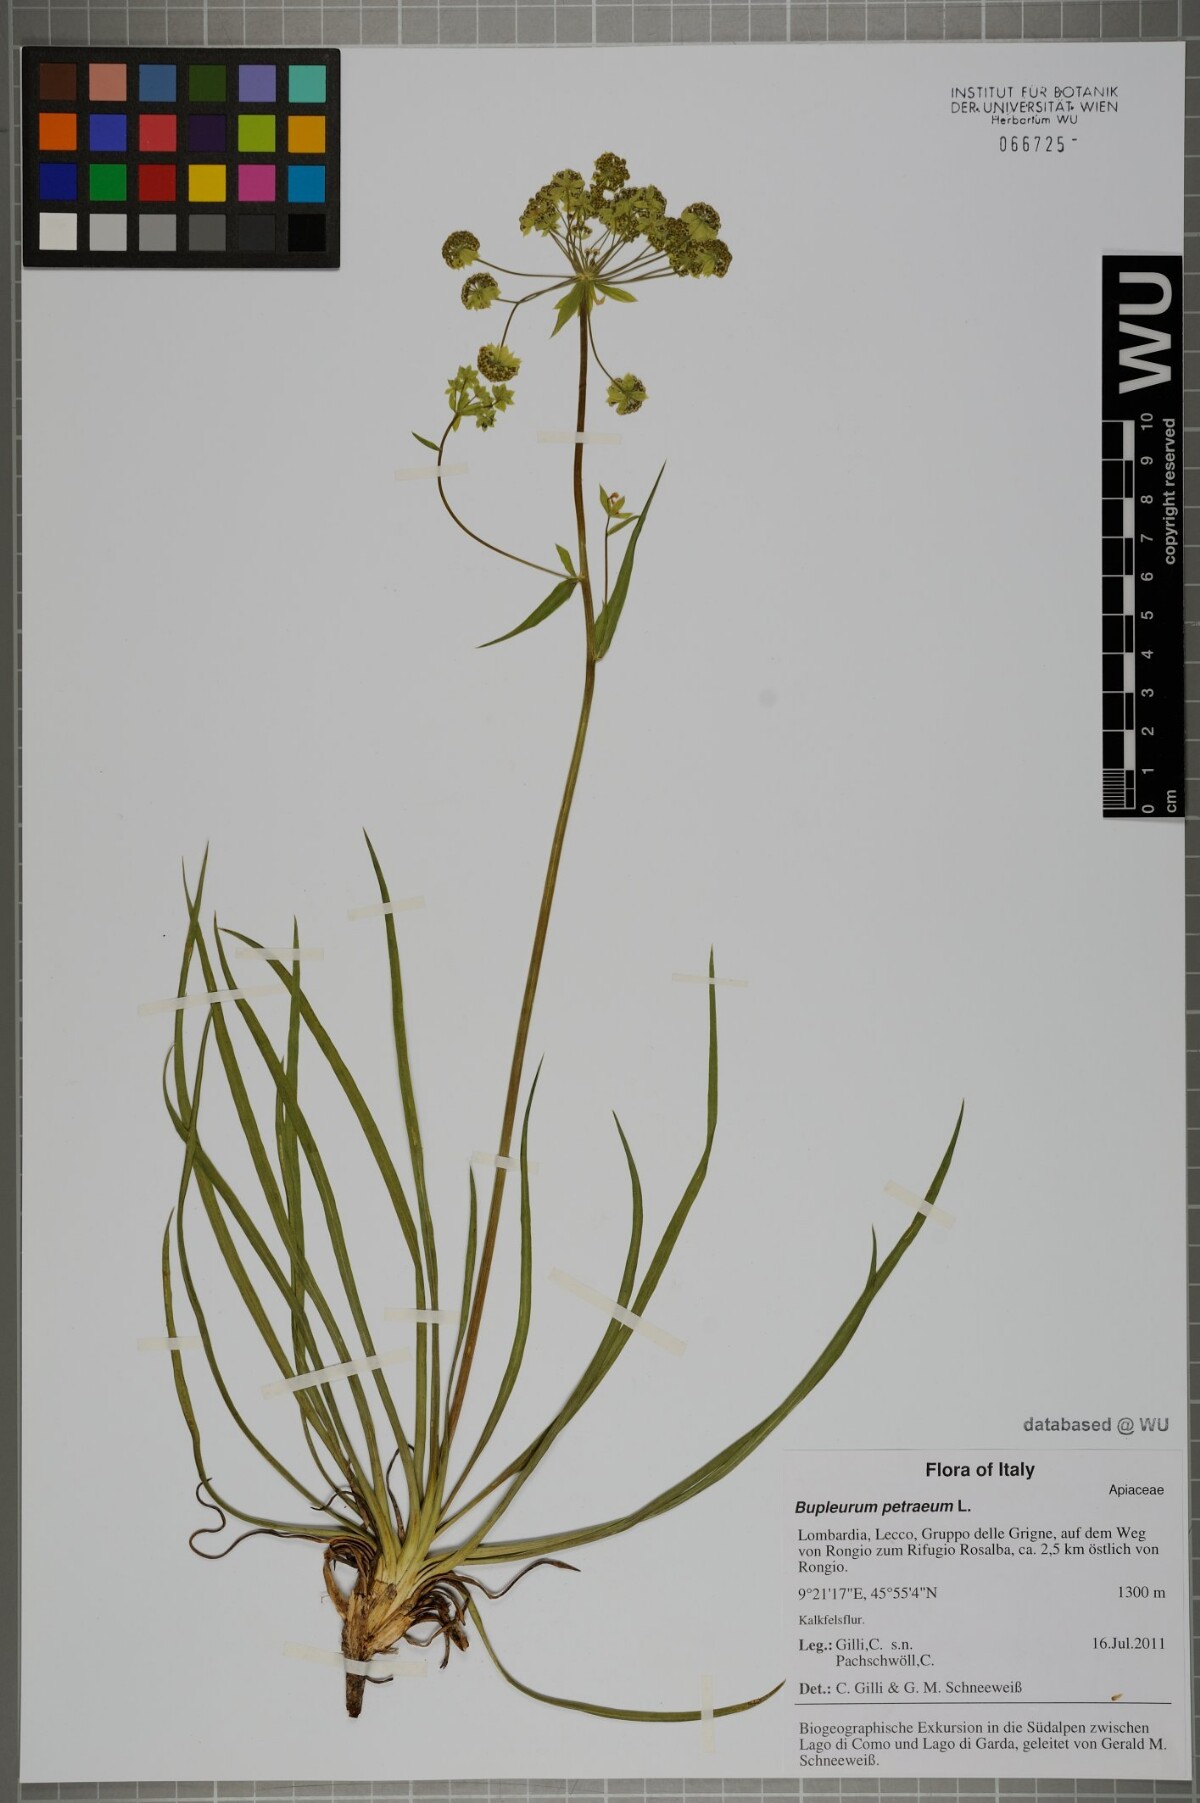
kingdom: Plantae
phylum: Tracheophyta
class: Magnoliopsida
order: Apiales
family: Apiaceae
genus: Bupleurum
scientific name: Bupleurum petraeum
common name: Rock hare's-ear
